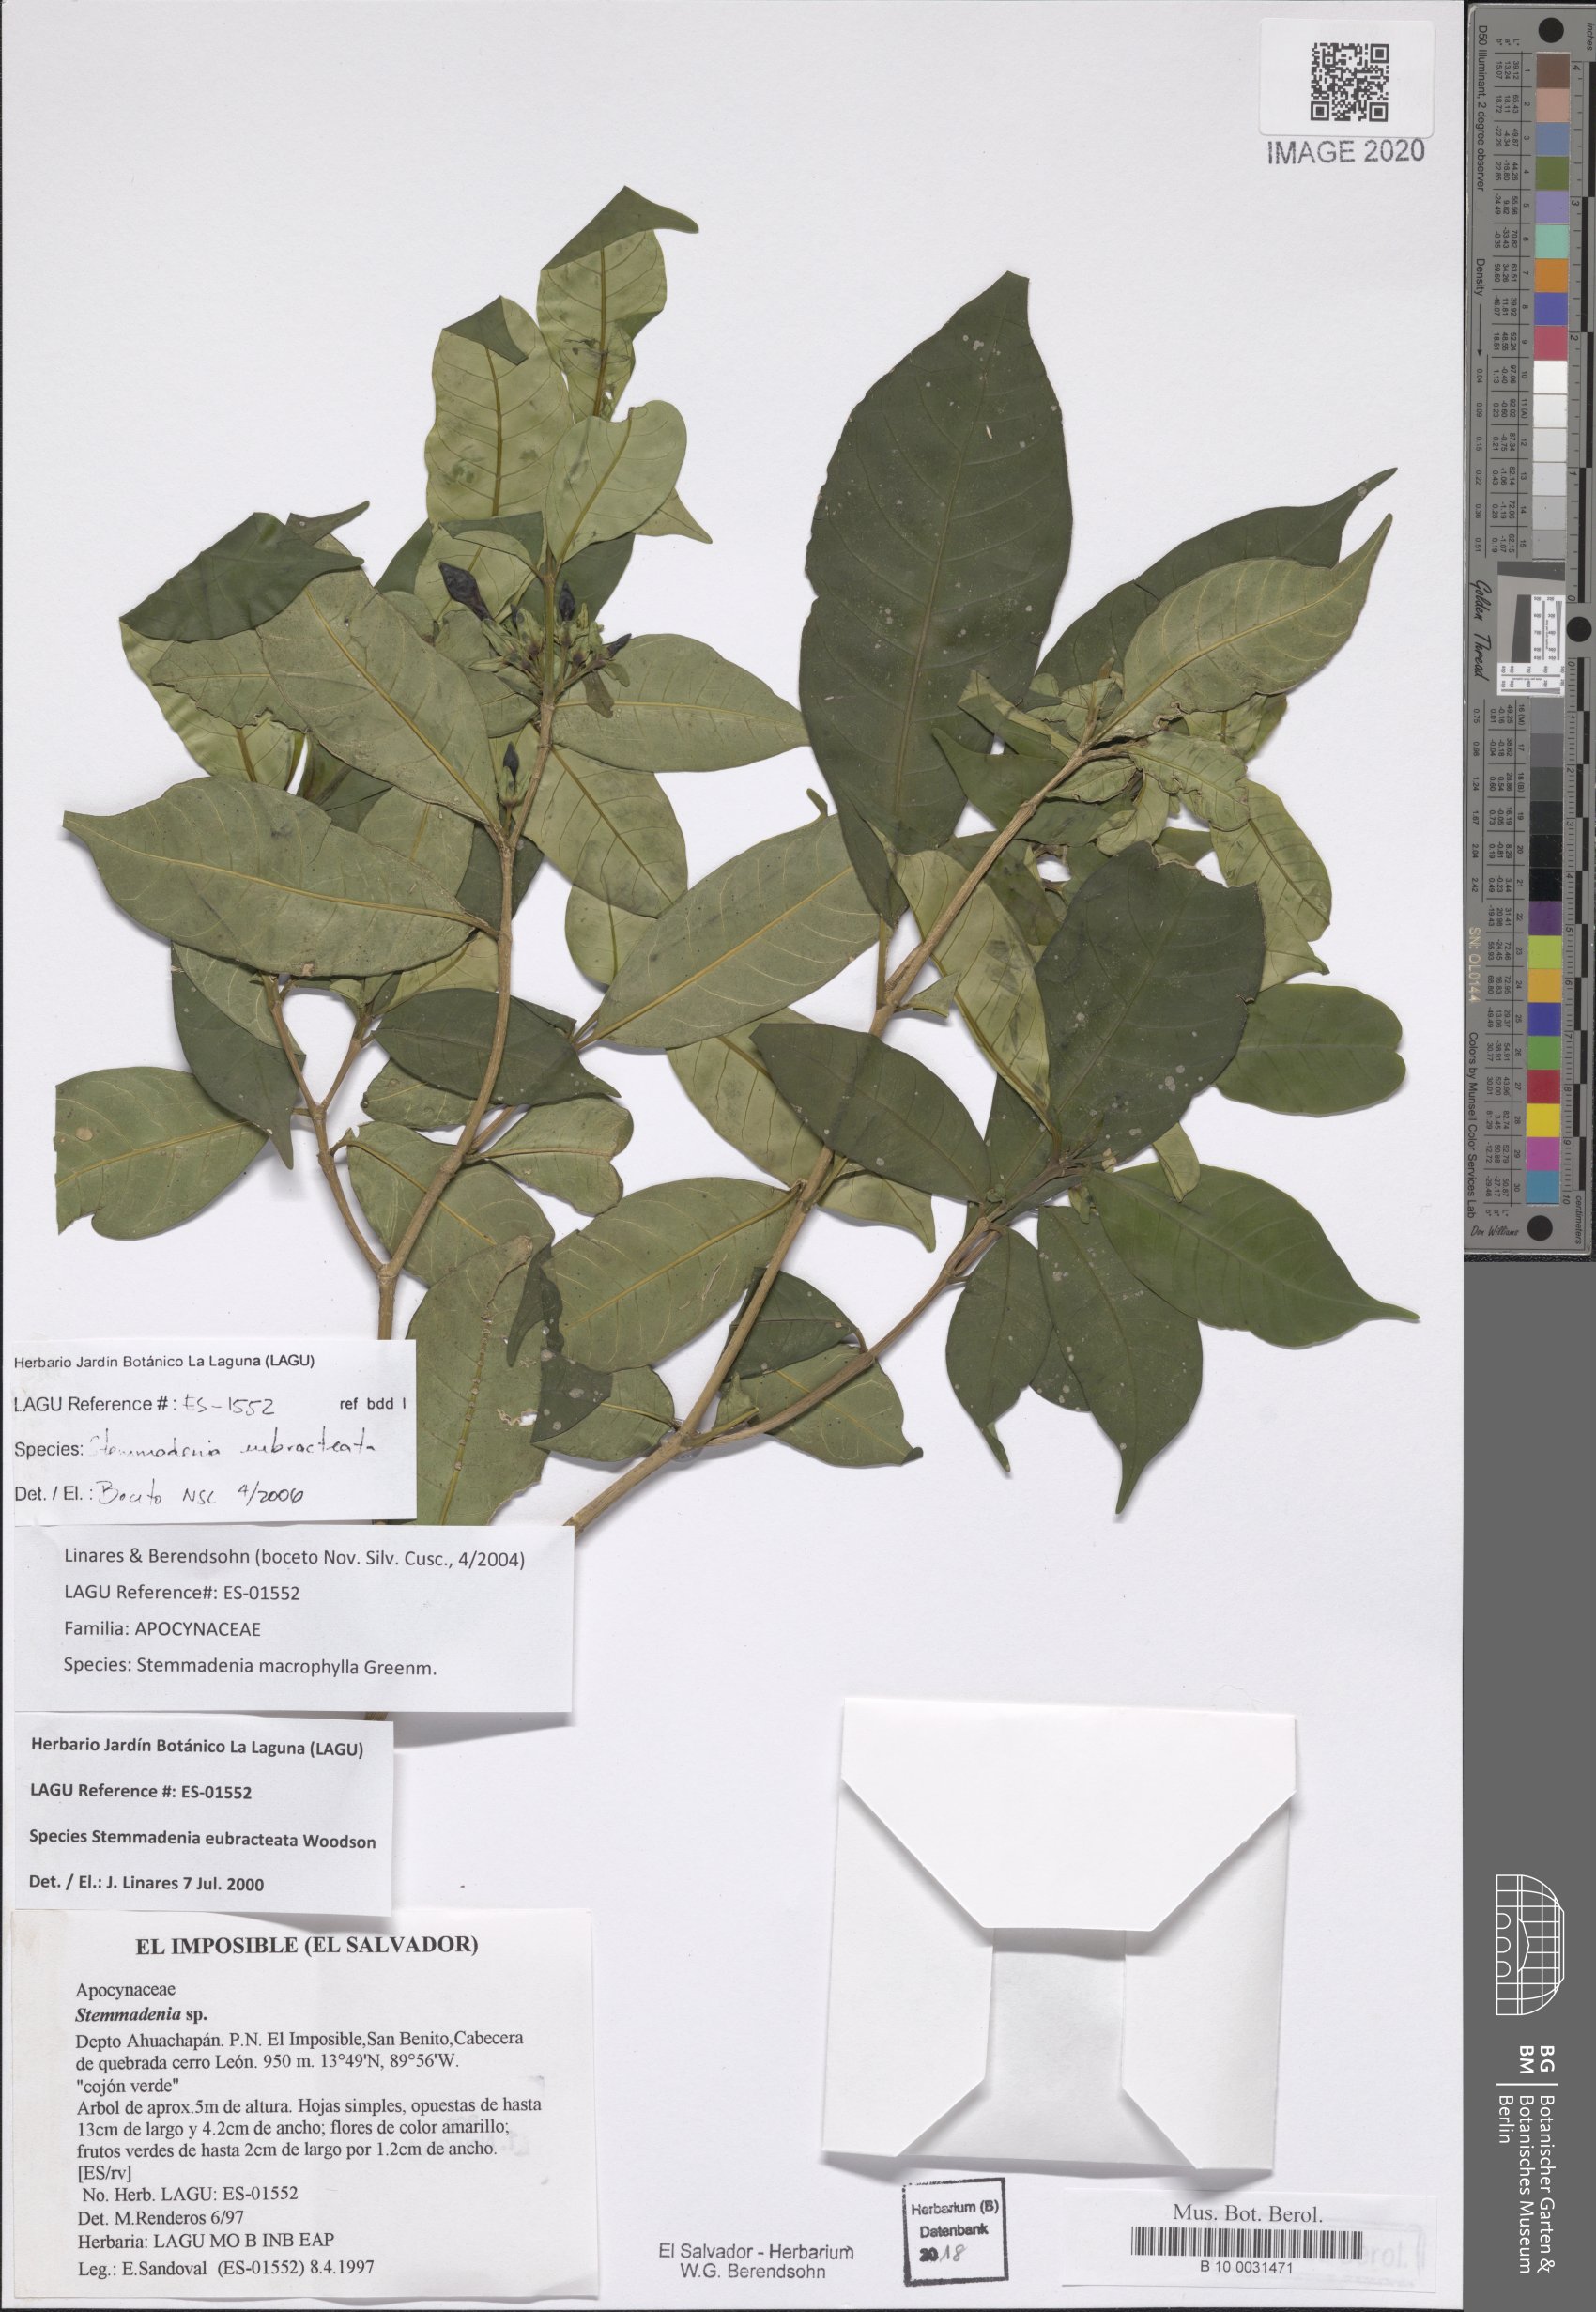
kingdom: Plantae
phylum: Tracheophyta
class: Magnoliopsida
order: Gentianales
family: Apocynaceae
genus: Tabernaemontana
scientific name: Tabernaemontana eubracteata
